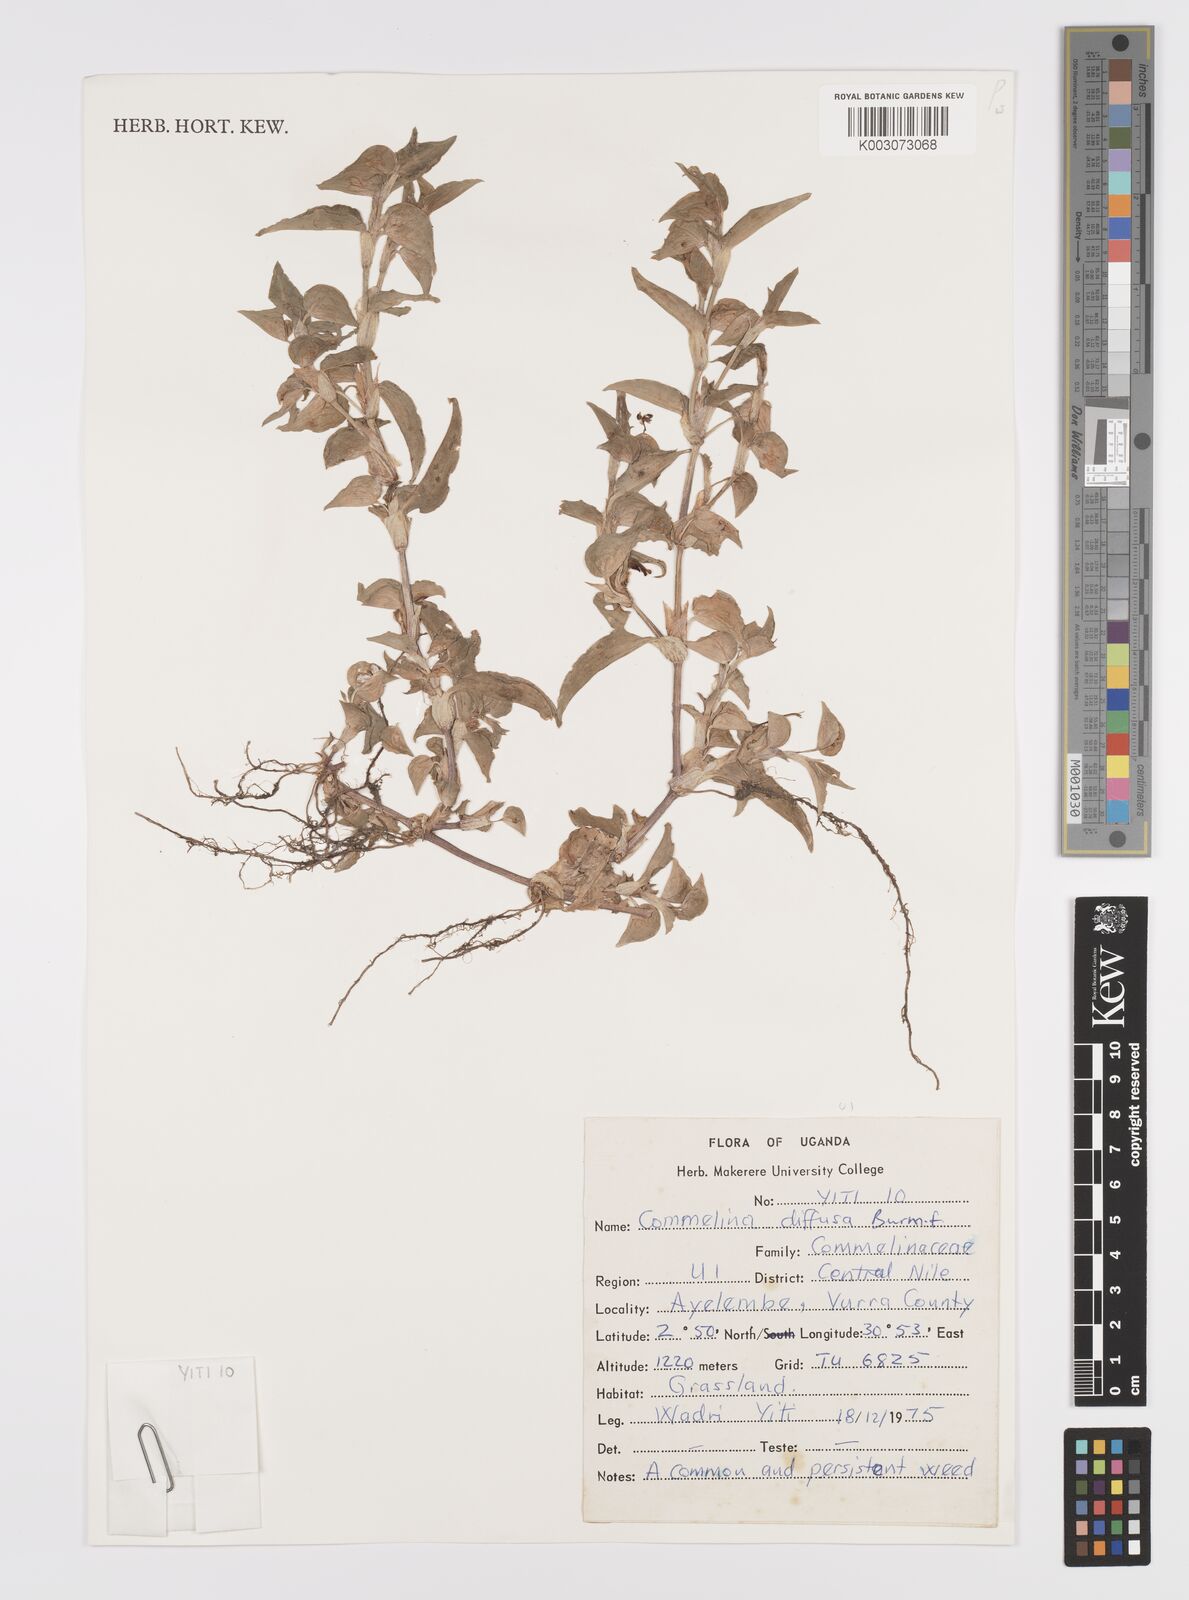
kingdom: Plantae
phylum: Tracheophyta
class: Liliopsida
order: Commelinales
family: Commelinaceae
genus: Commelina
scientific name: Commelina diffusa
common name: Climbing dayflower
